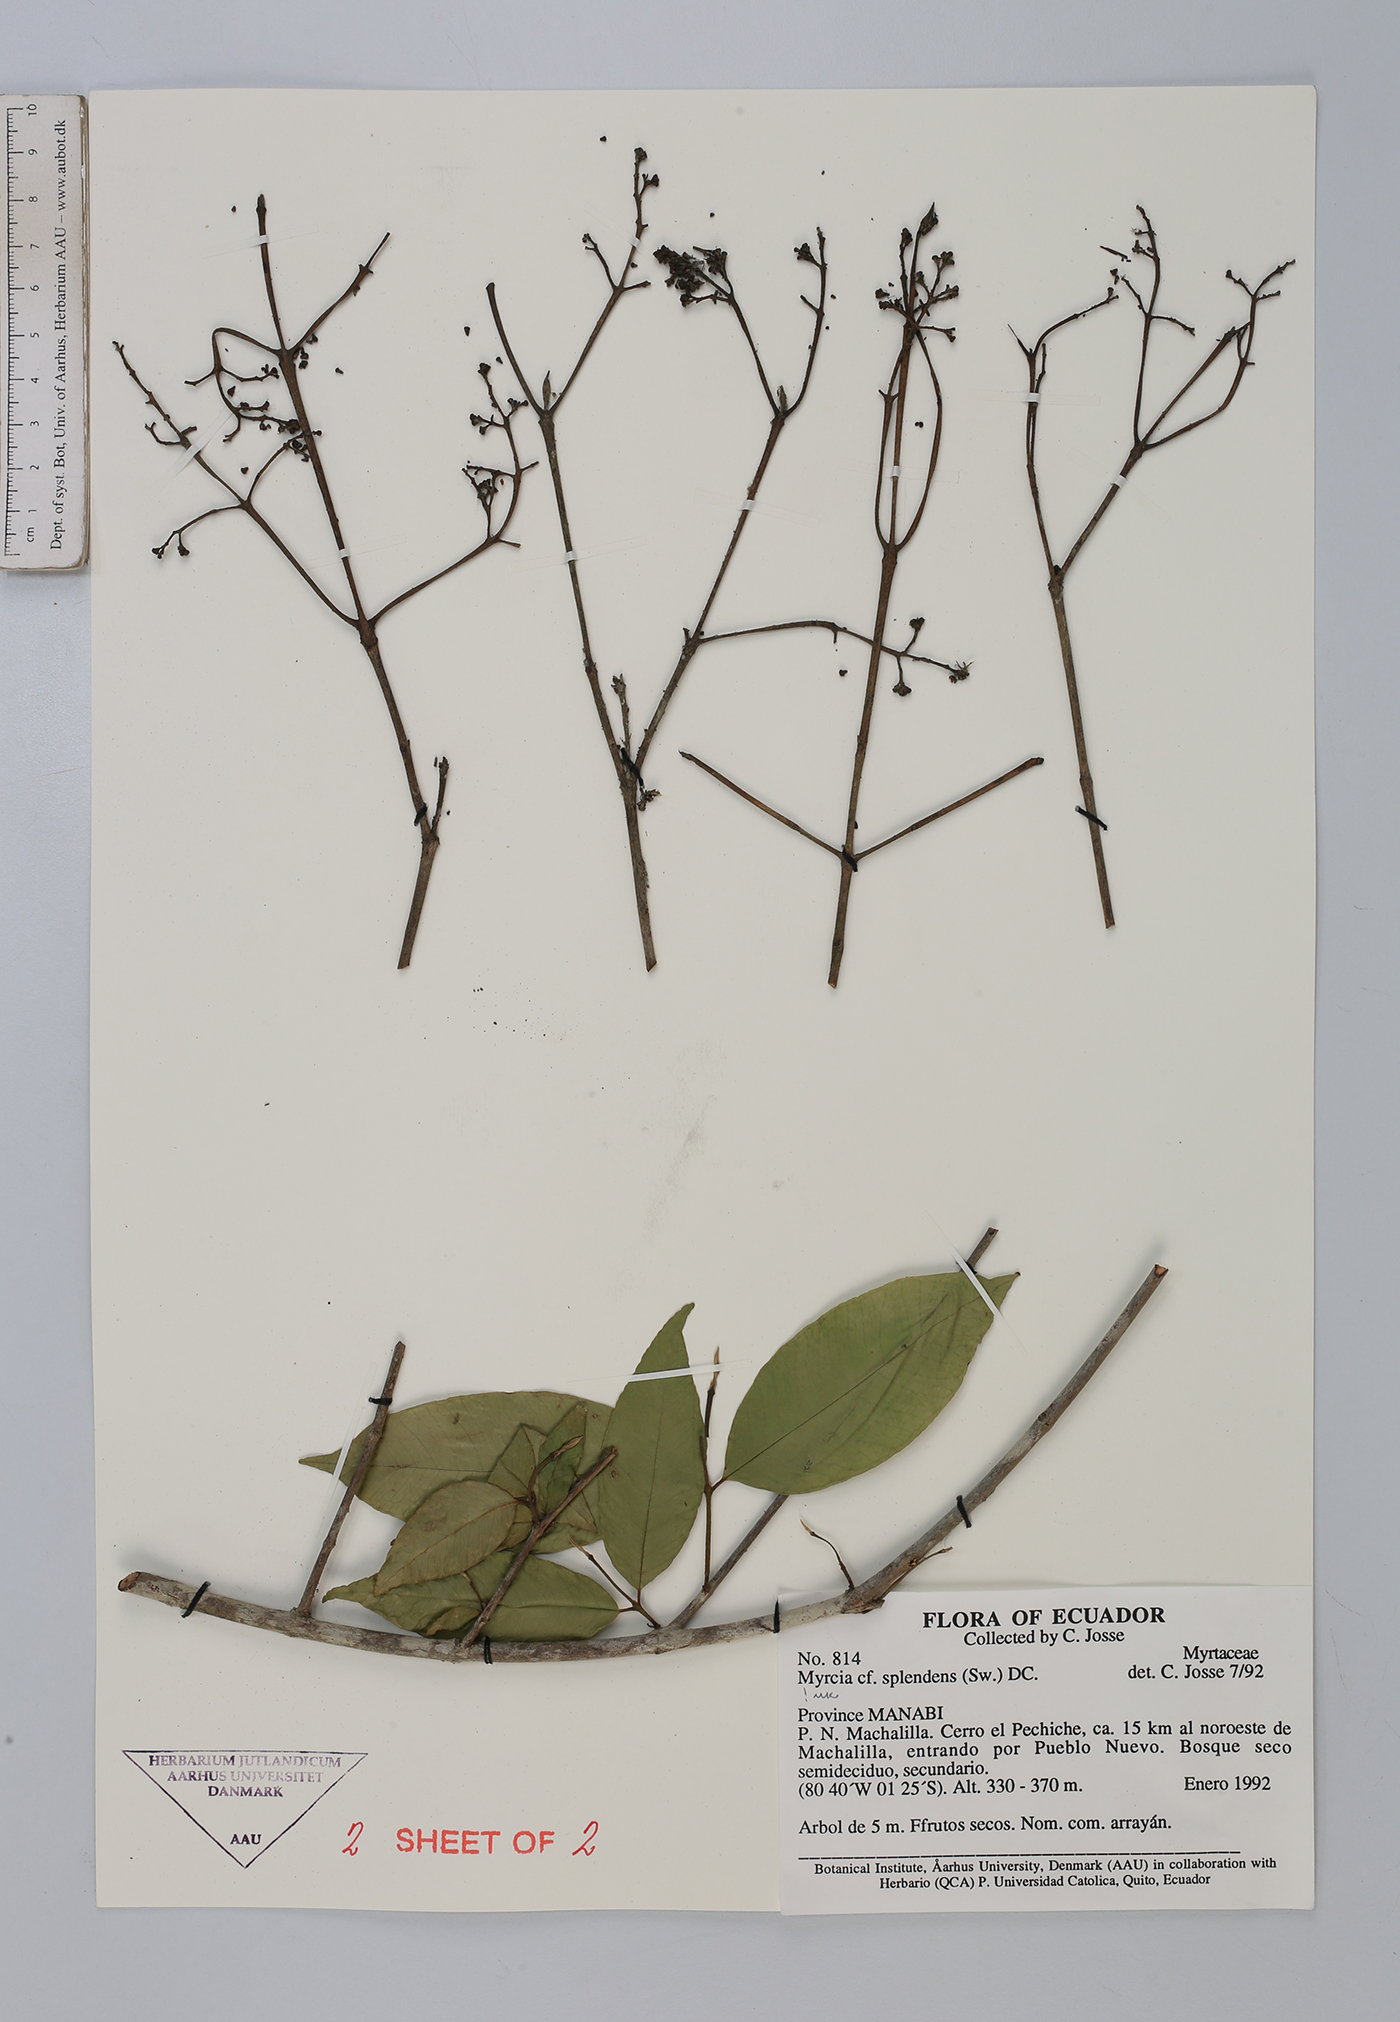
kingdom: Plantae
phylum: Tracheophyta
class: Magnoliopsida
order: Myrtales
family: Myrtaceae
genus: Myrcia
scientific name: Myrcia splendens
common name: Surinam cherry
